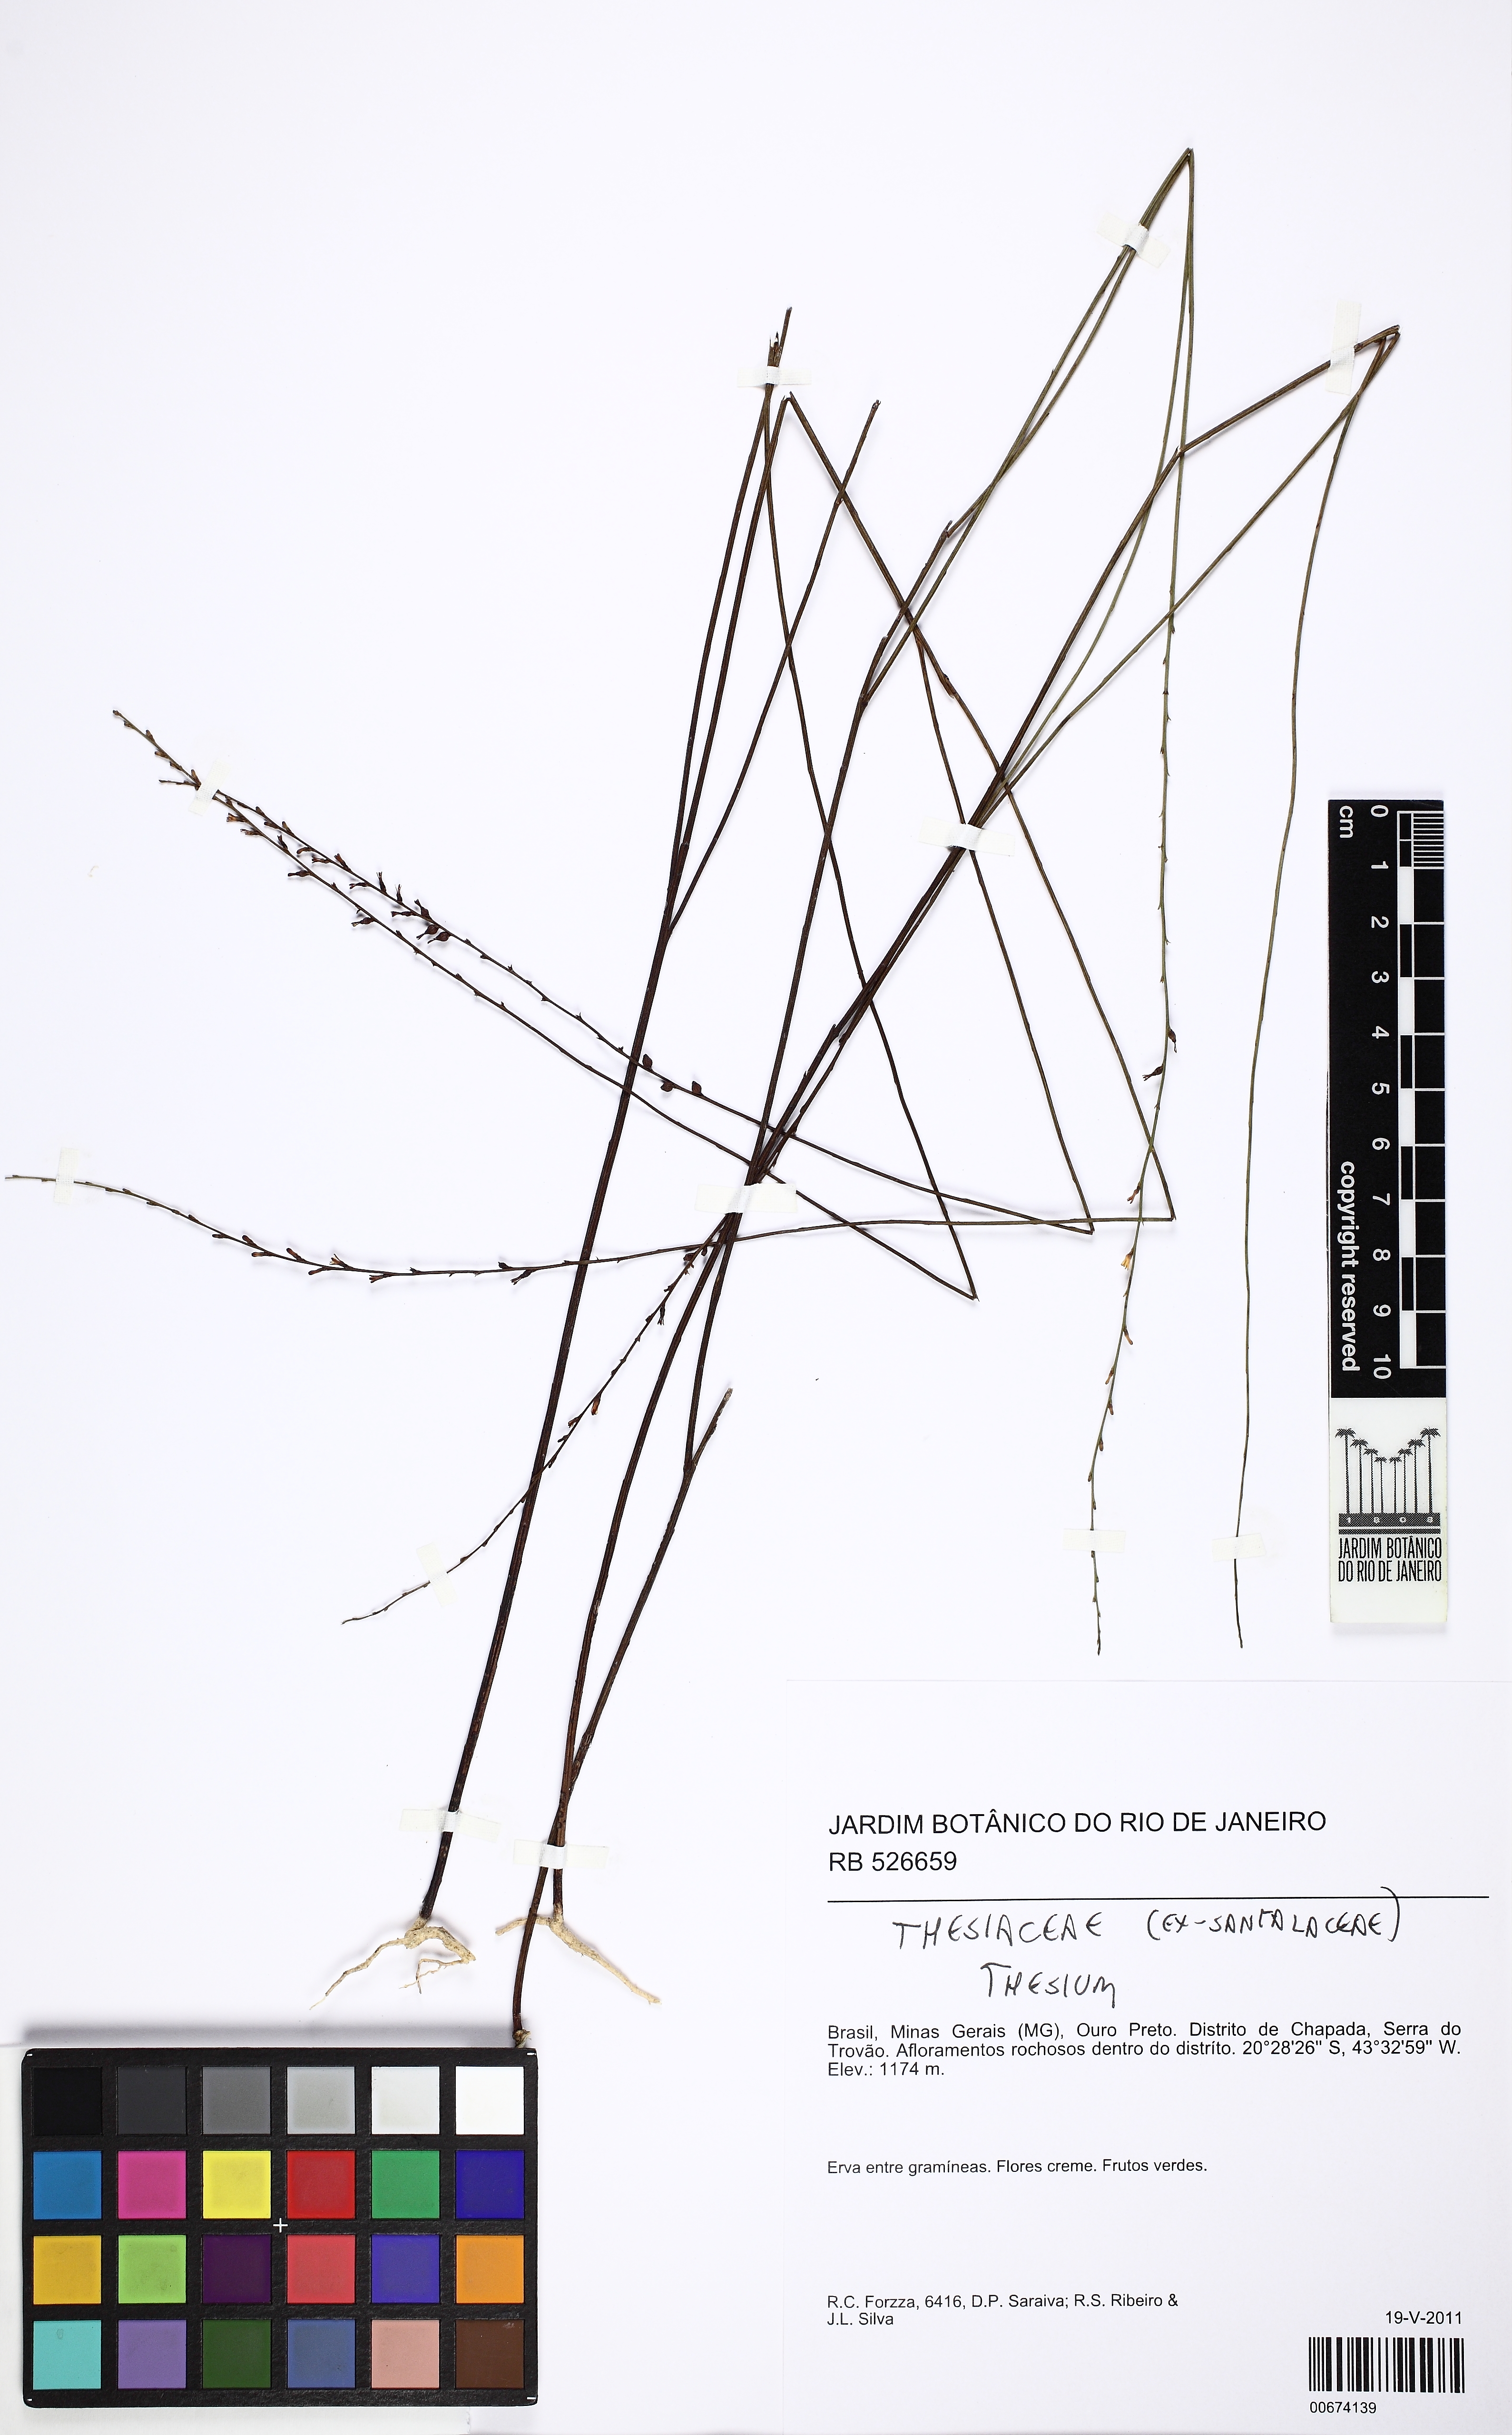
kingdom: Plantae
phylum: Tracheophyta
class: Magnoliopsida
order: Santalales
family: Thesiaceae
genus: Thesium
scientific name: Thesium
